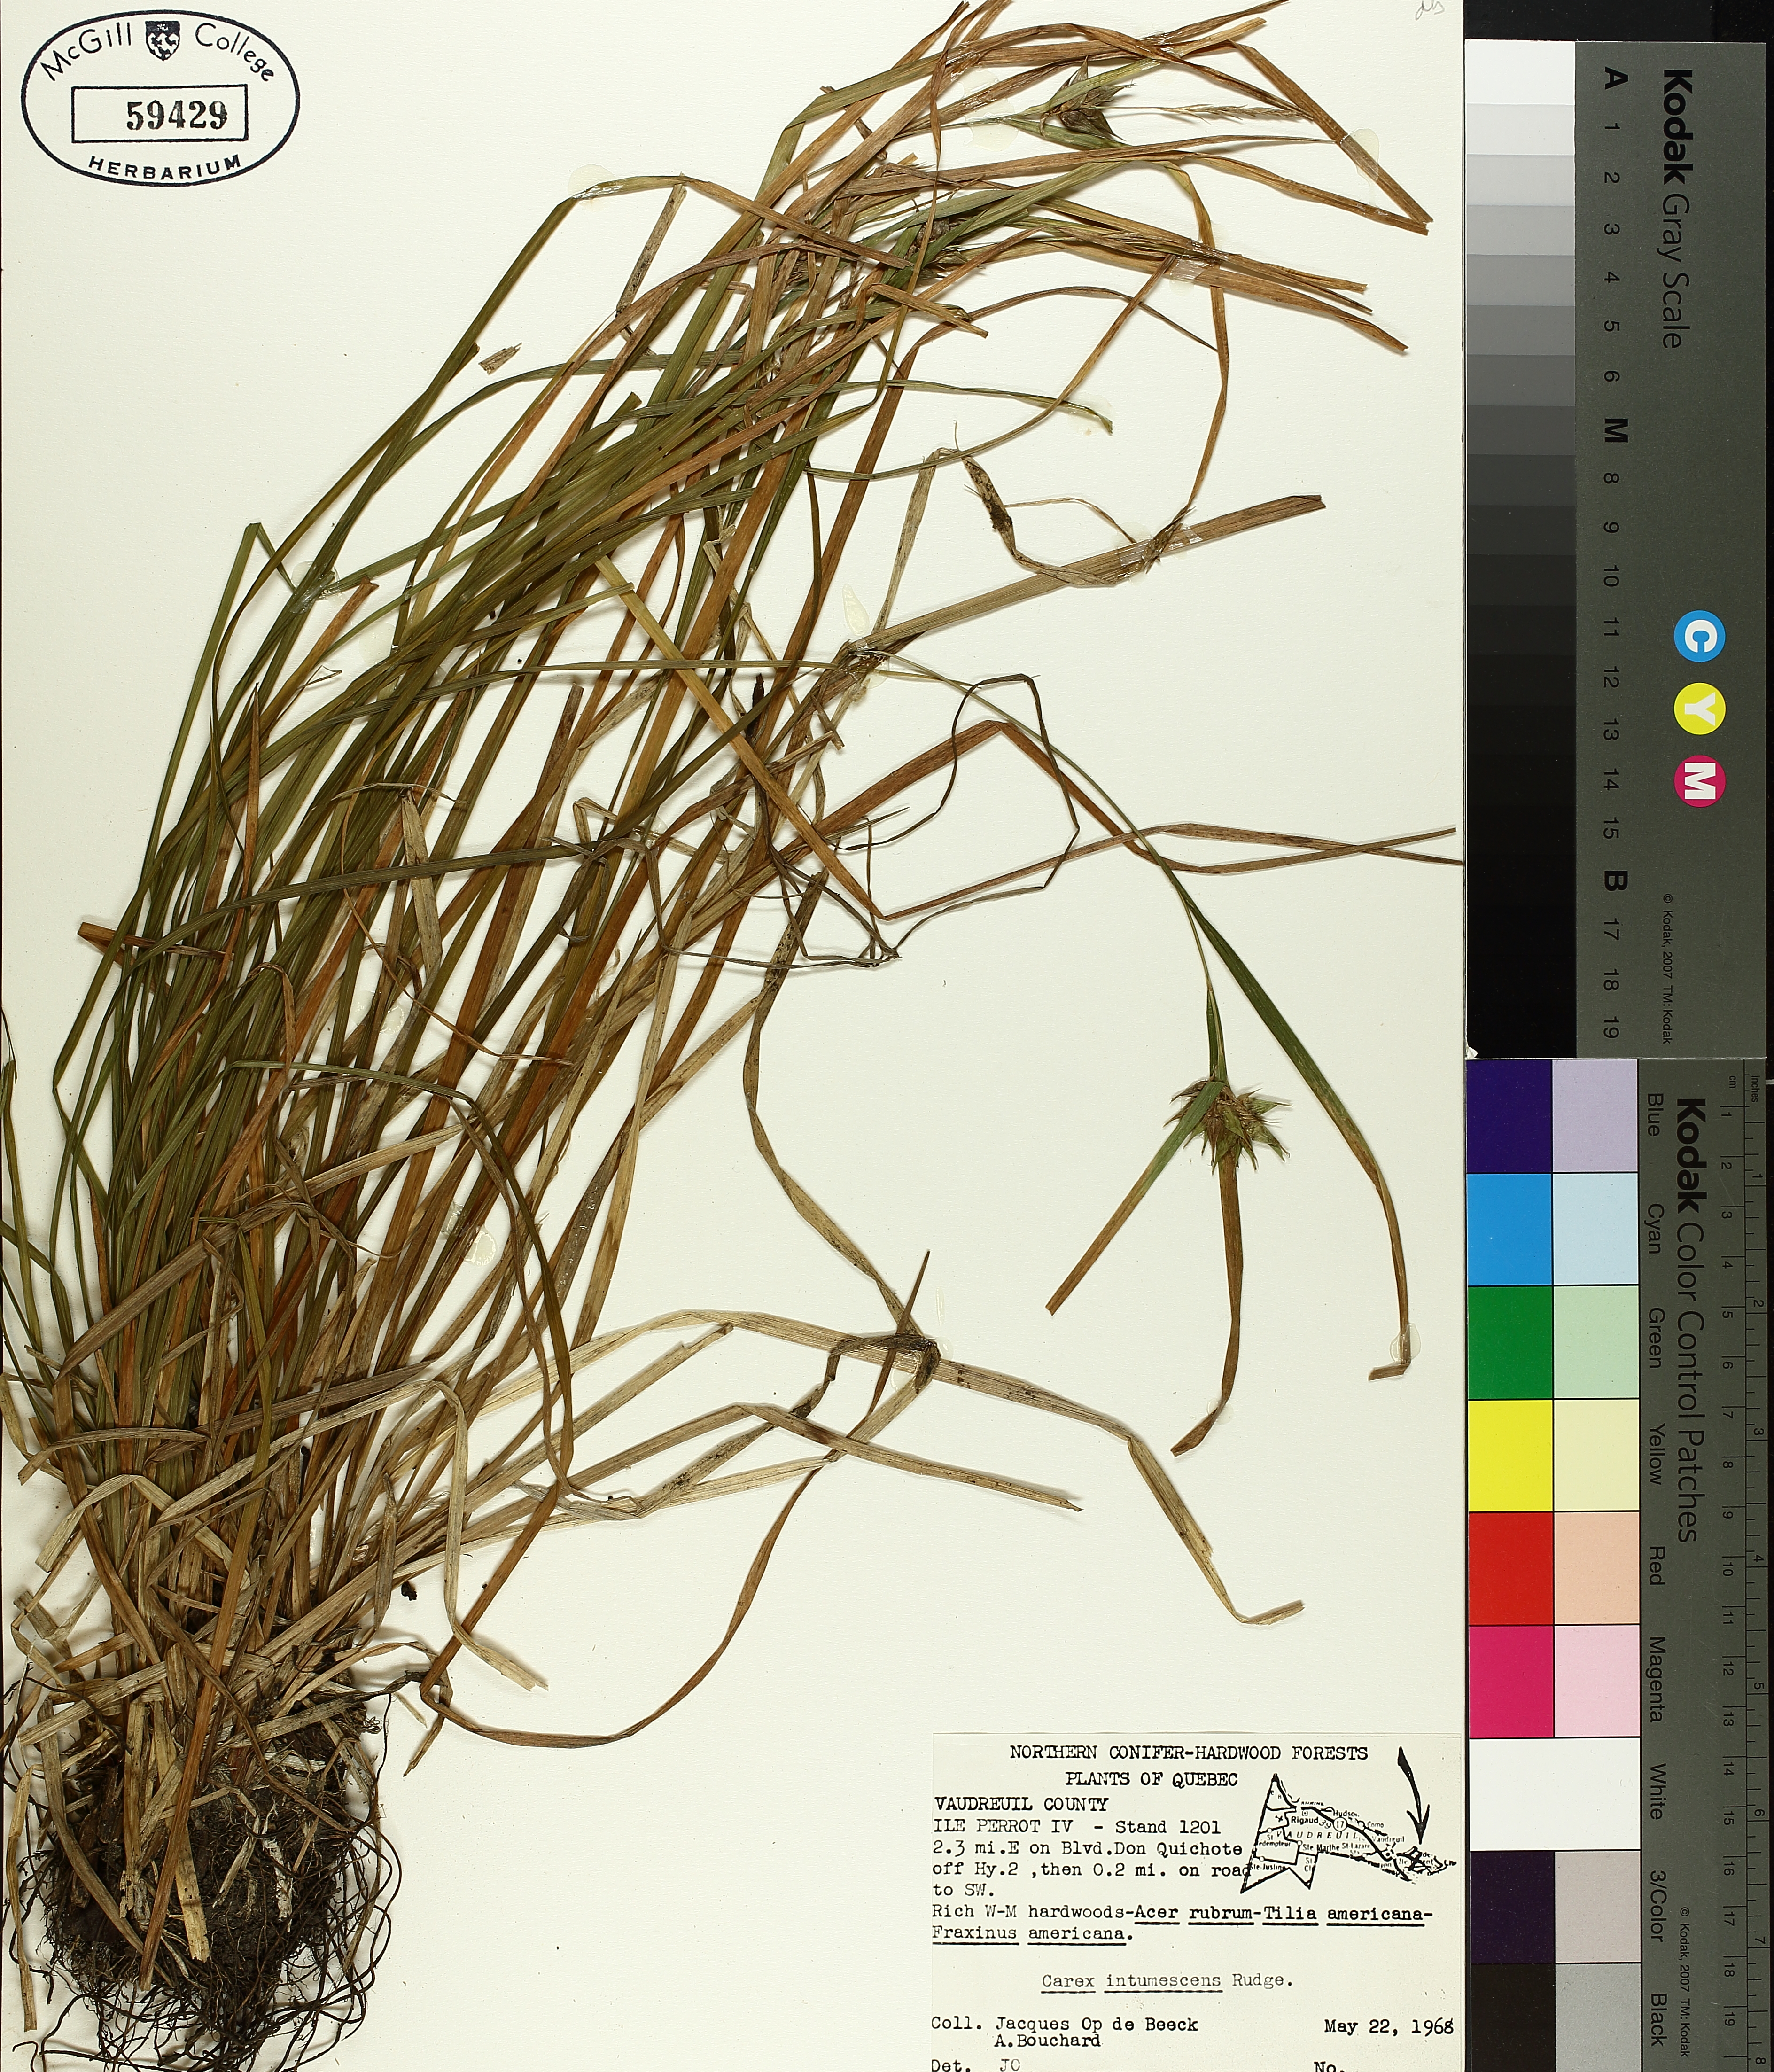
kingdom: Plantae
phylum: Tracheophyta
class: Liliopsida
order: Poales
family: Cyperaceae
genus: Carex
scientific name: Carex intumescens
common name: Greater bladder sedge
